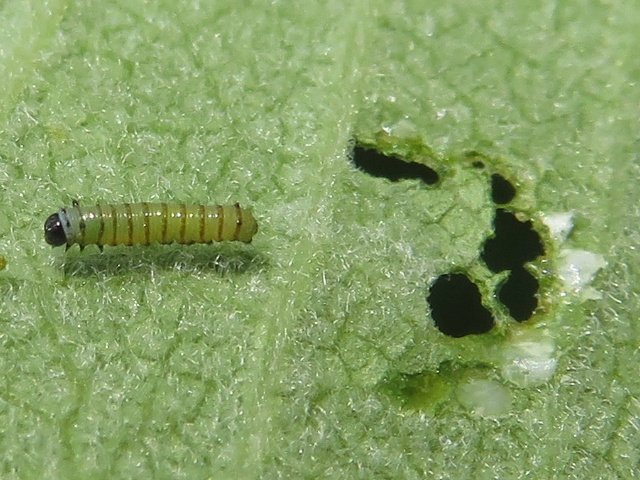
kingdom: Animalia
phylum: Arthropoda
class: Insecta
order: Lepidoptera
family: Nymphalidae
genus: Danaus
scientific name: Danaus plexippus
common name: Monarch
